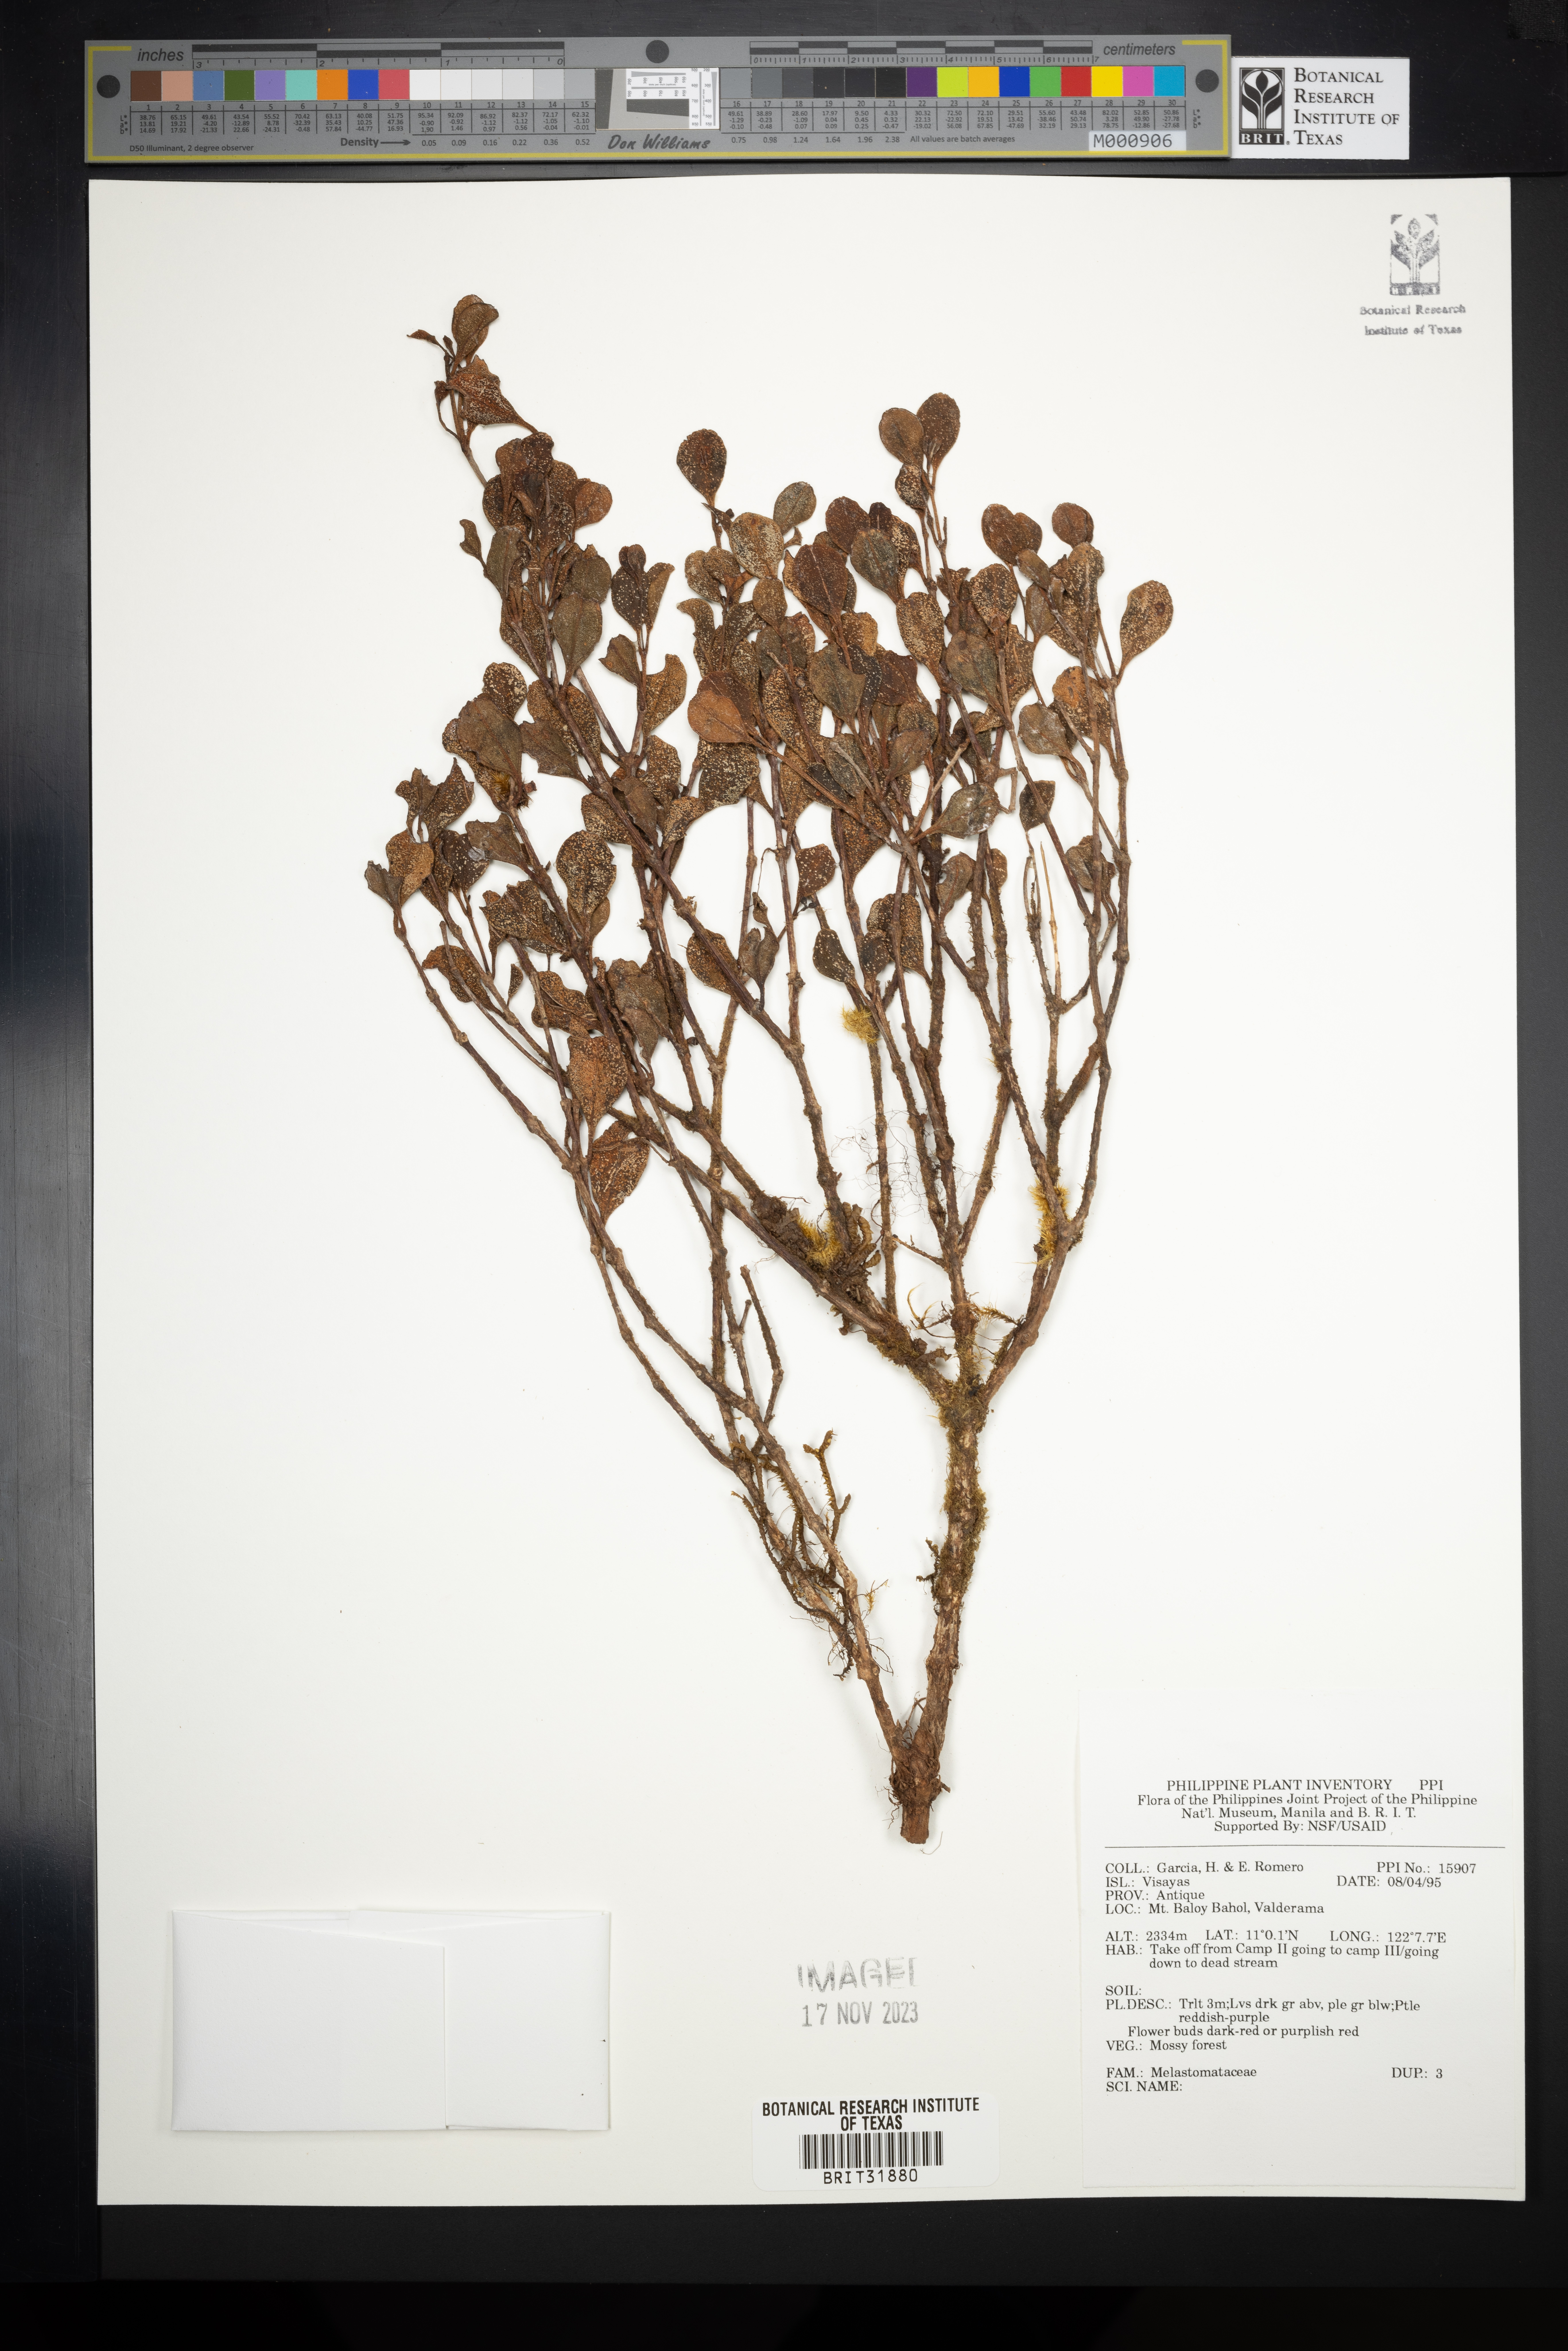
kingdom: Plantae
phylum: Tracheophyta
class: Magnoliopsida
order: Myrtales
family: Melastomataceae
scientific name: Melastomataceae
